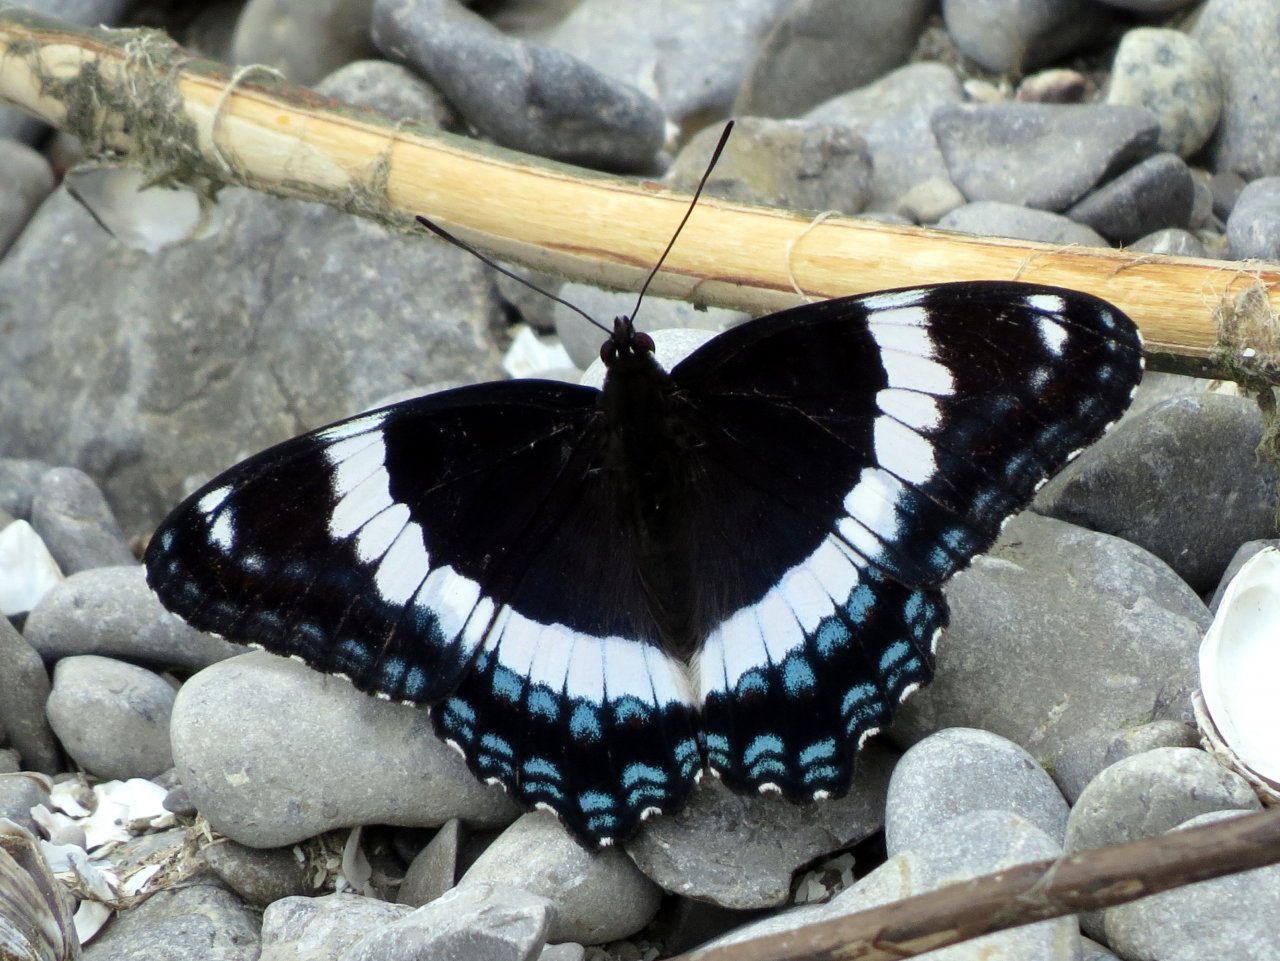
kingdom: Animalia
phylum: Arthropoda
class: Insecta
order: Lepidoptera
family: Nymphalidae
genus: Limenitis
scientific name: Limenitis arthemis
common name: Red-spotted Admiral
